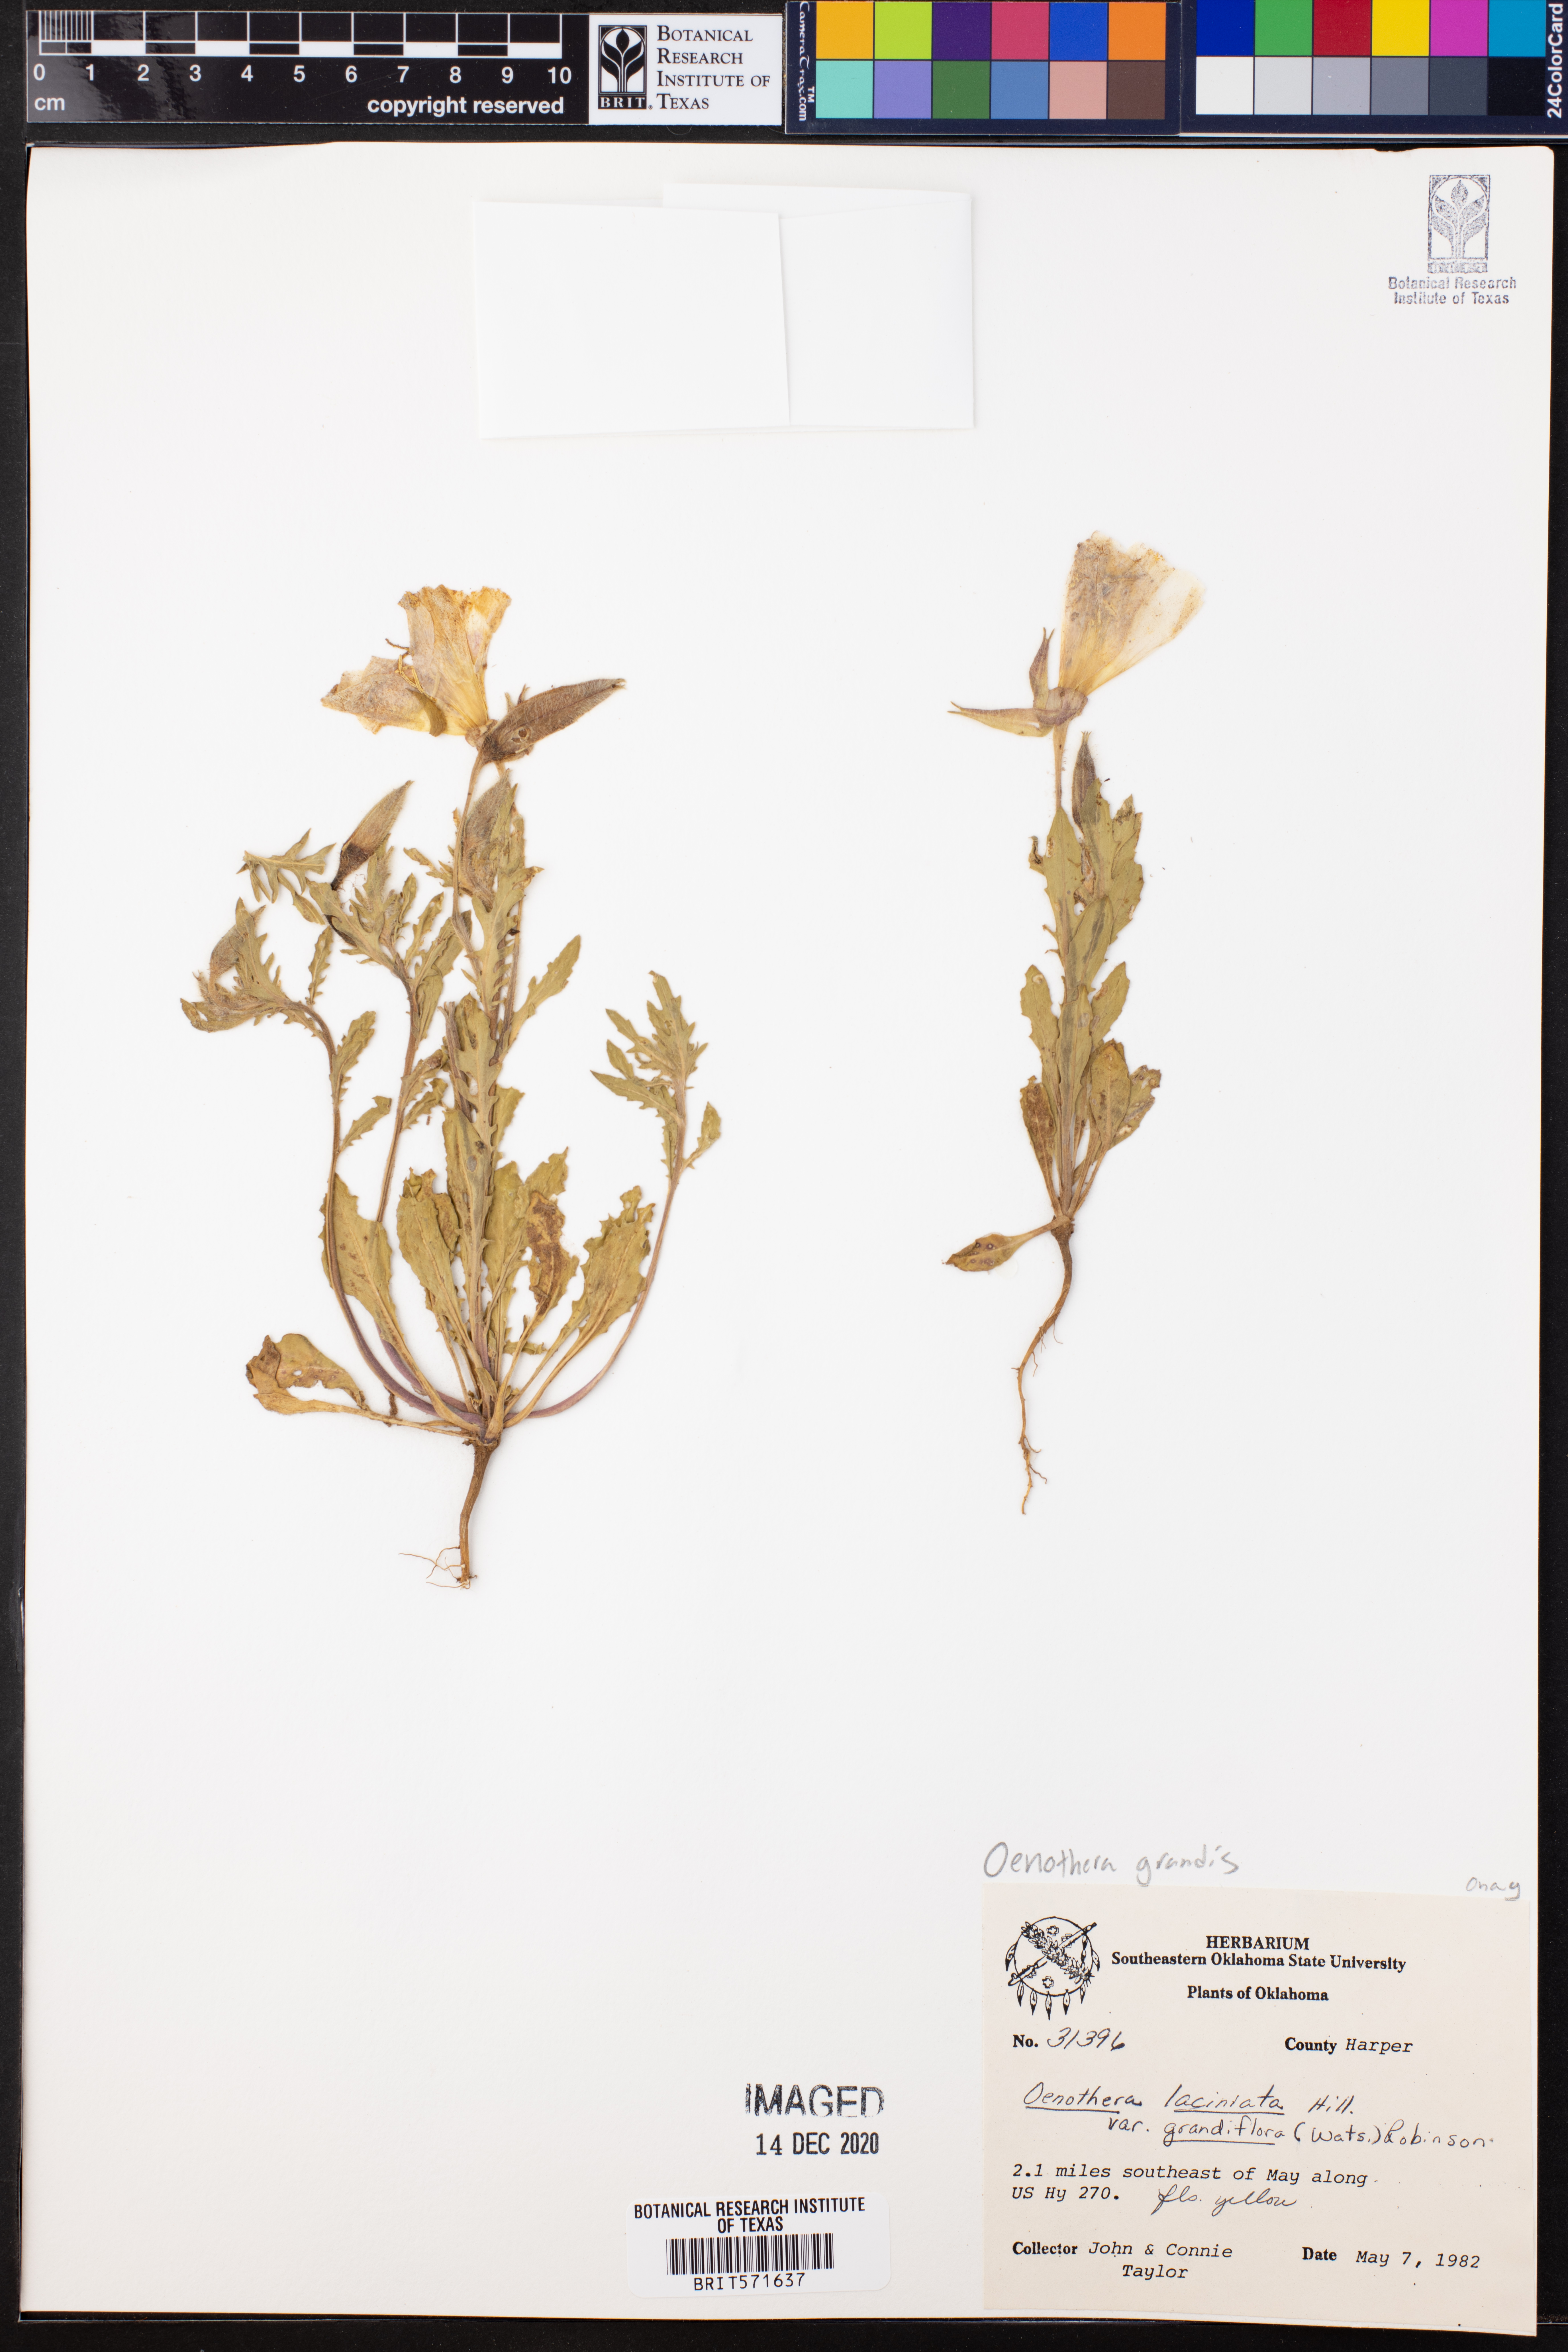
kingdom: Plantae
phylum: Tracheophyta
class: Magnoliopsida
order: Myrtales
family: Onagraceae
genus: Oenothera
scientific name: Oenothera grandis
